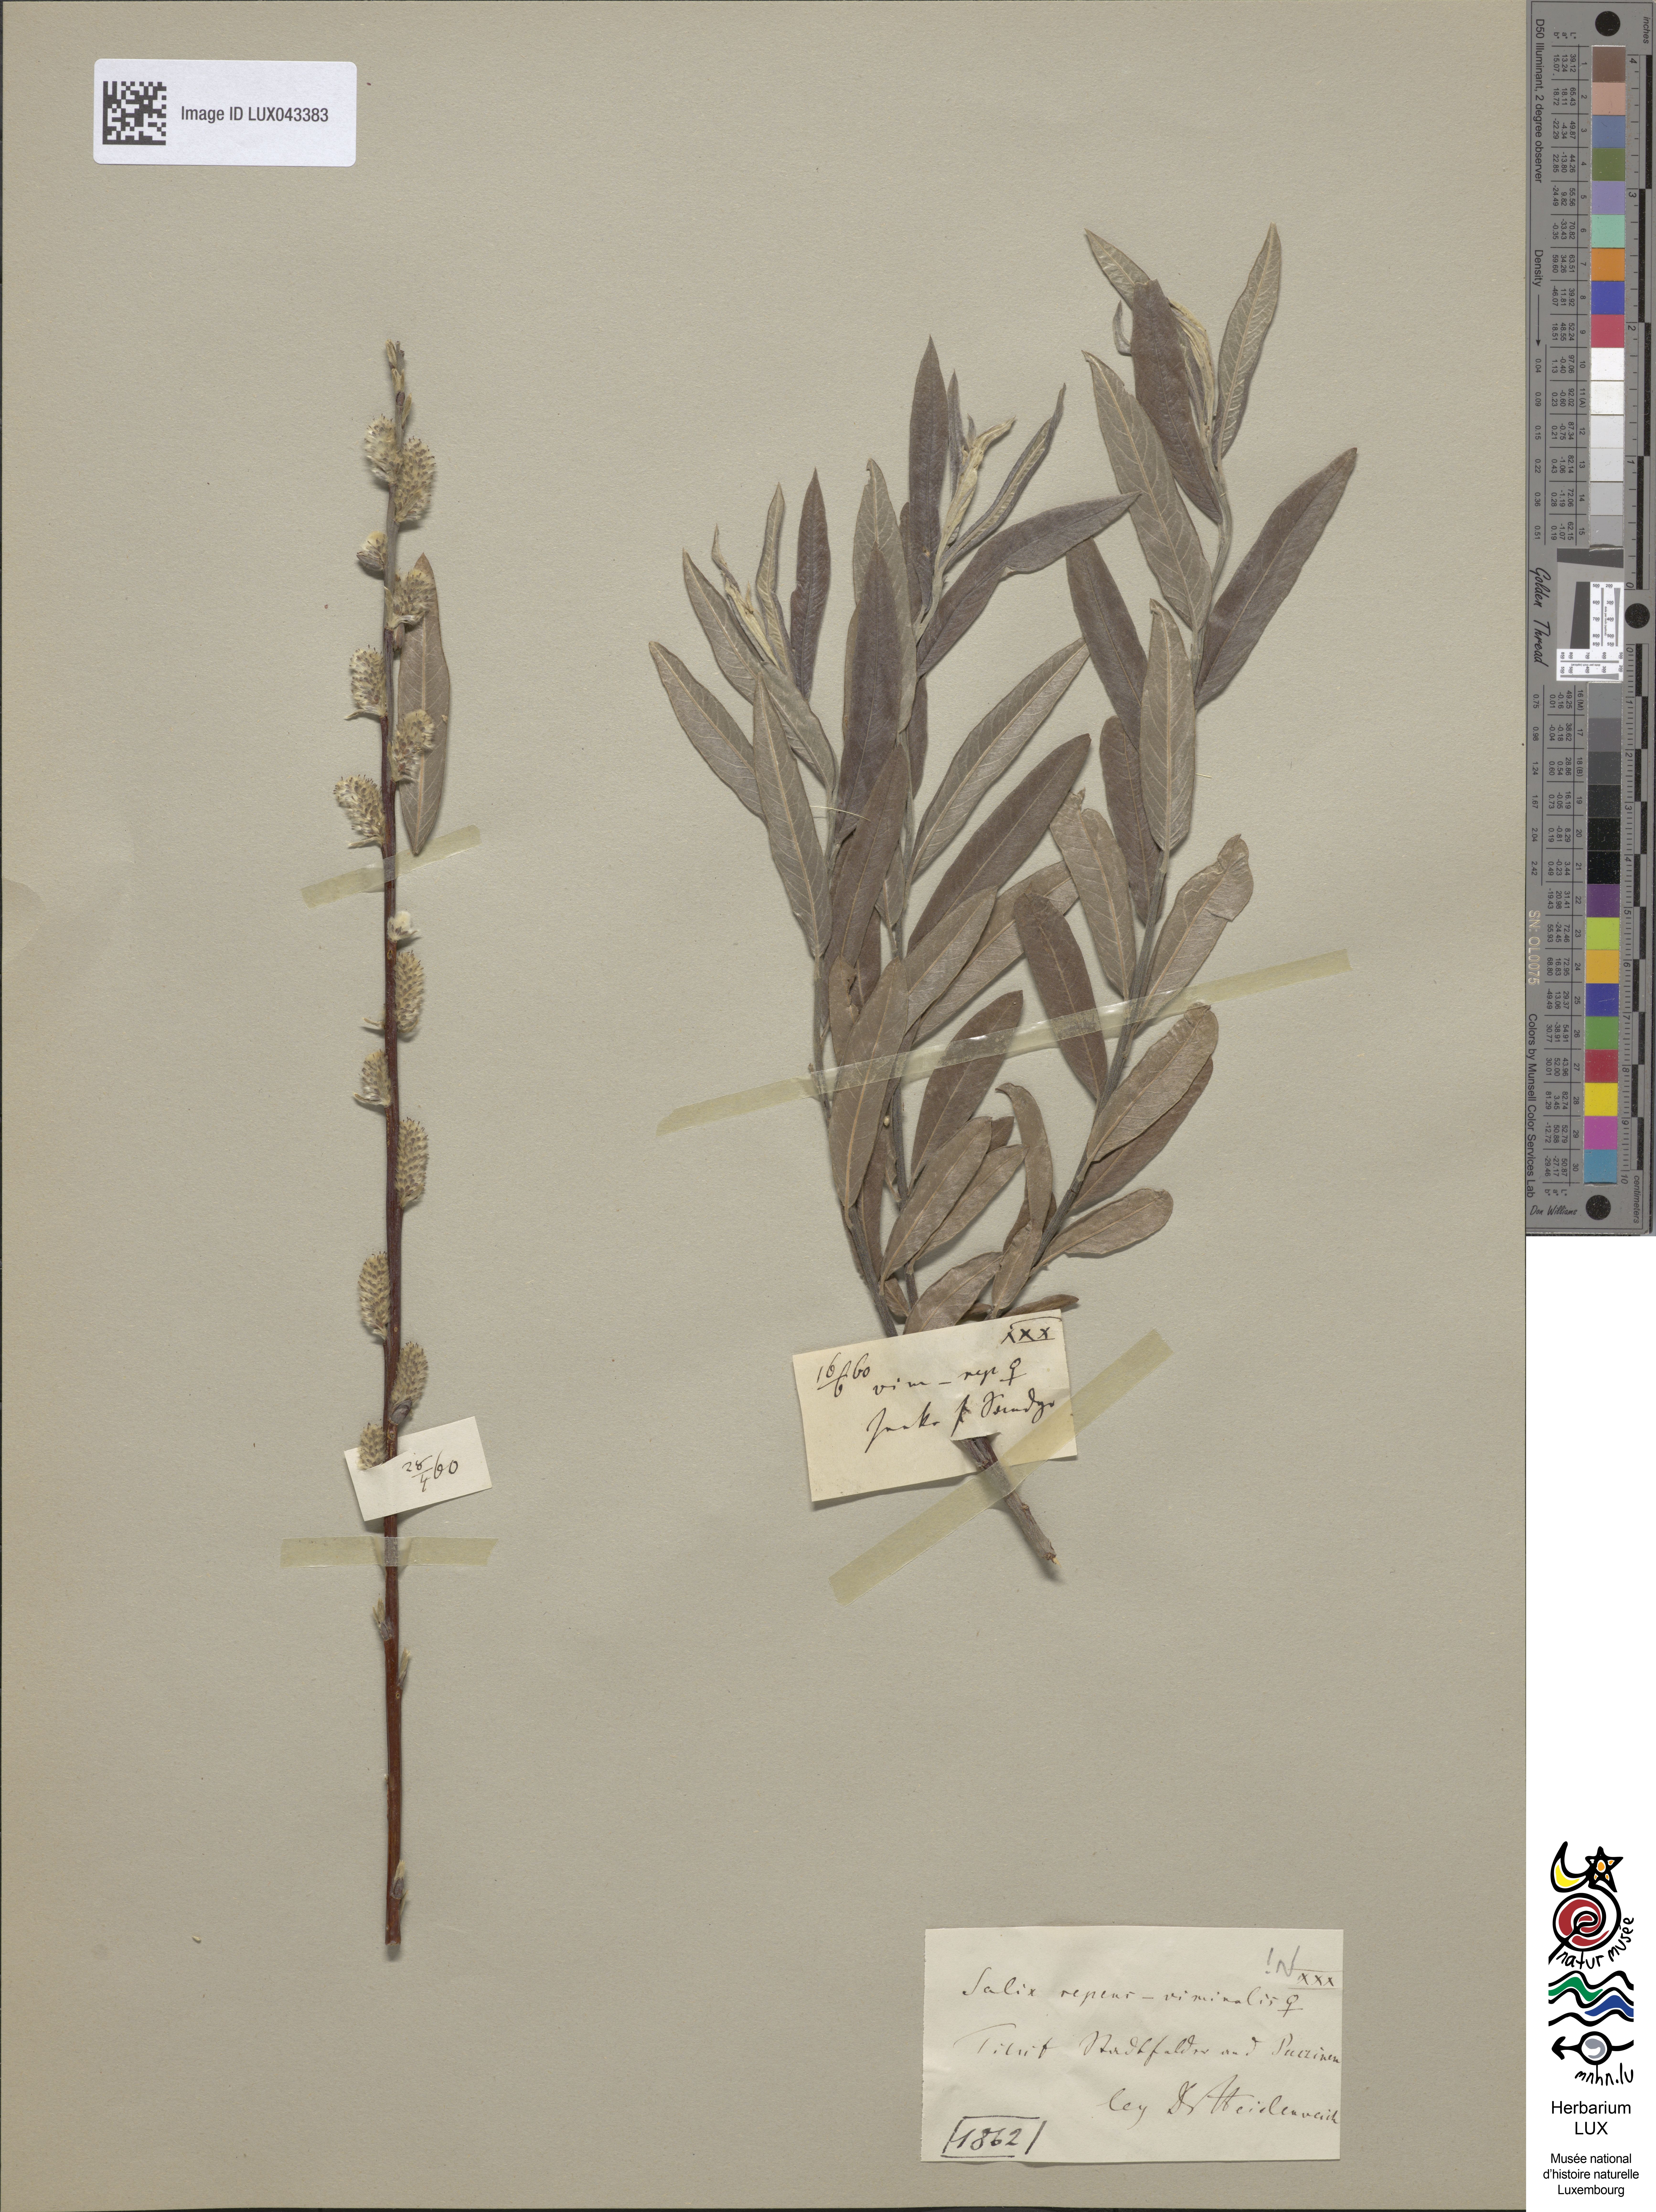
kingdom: Plantae
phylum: Tracheophyta
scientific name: Tracheophyta
